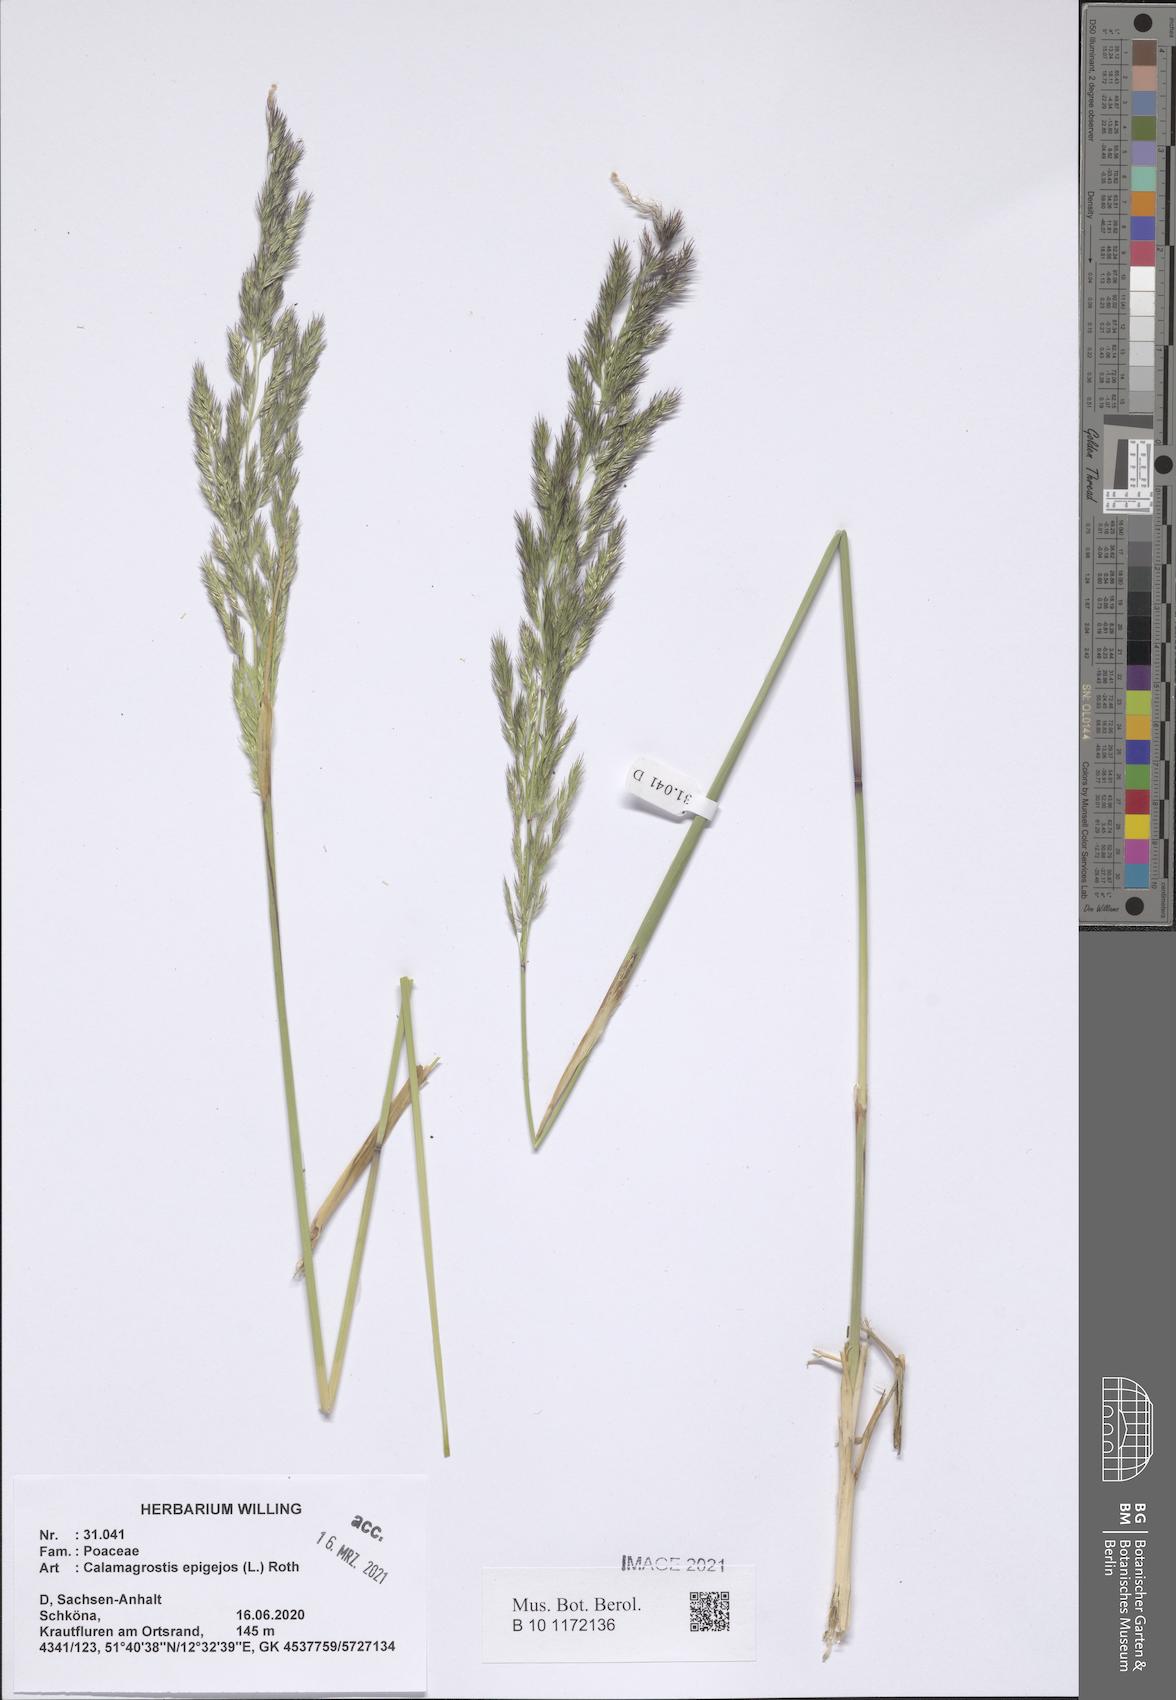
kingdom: Plantae
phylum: Tracheophyta
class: Liliopsida
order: Poales
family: Poaceae
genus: Calamagrostis
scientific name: Calamagrostis epigejos
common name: Wood small-reed
